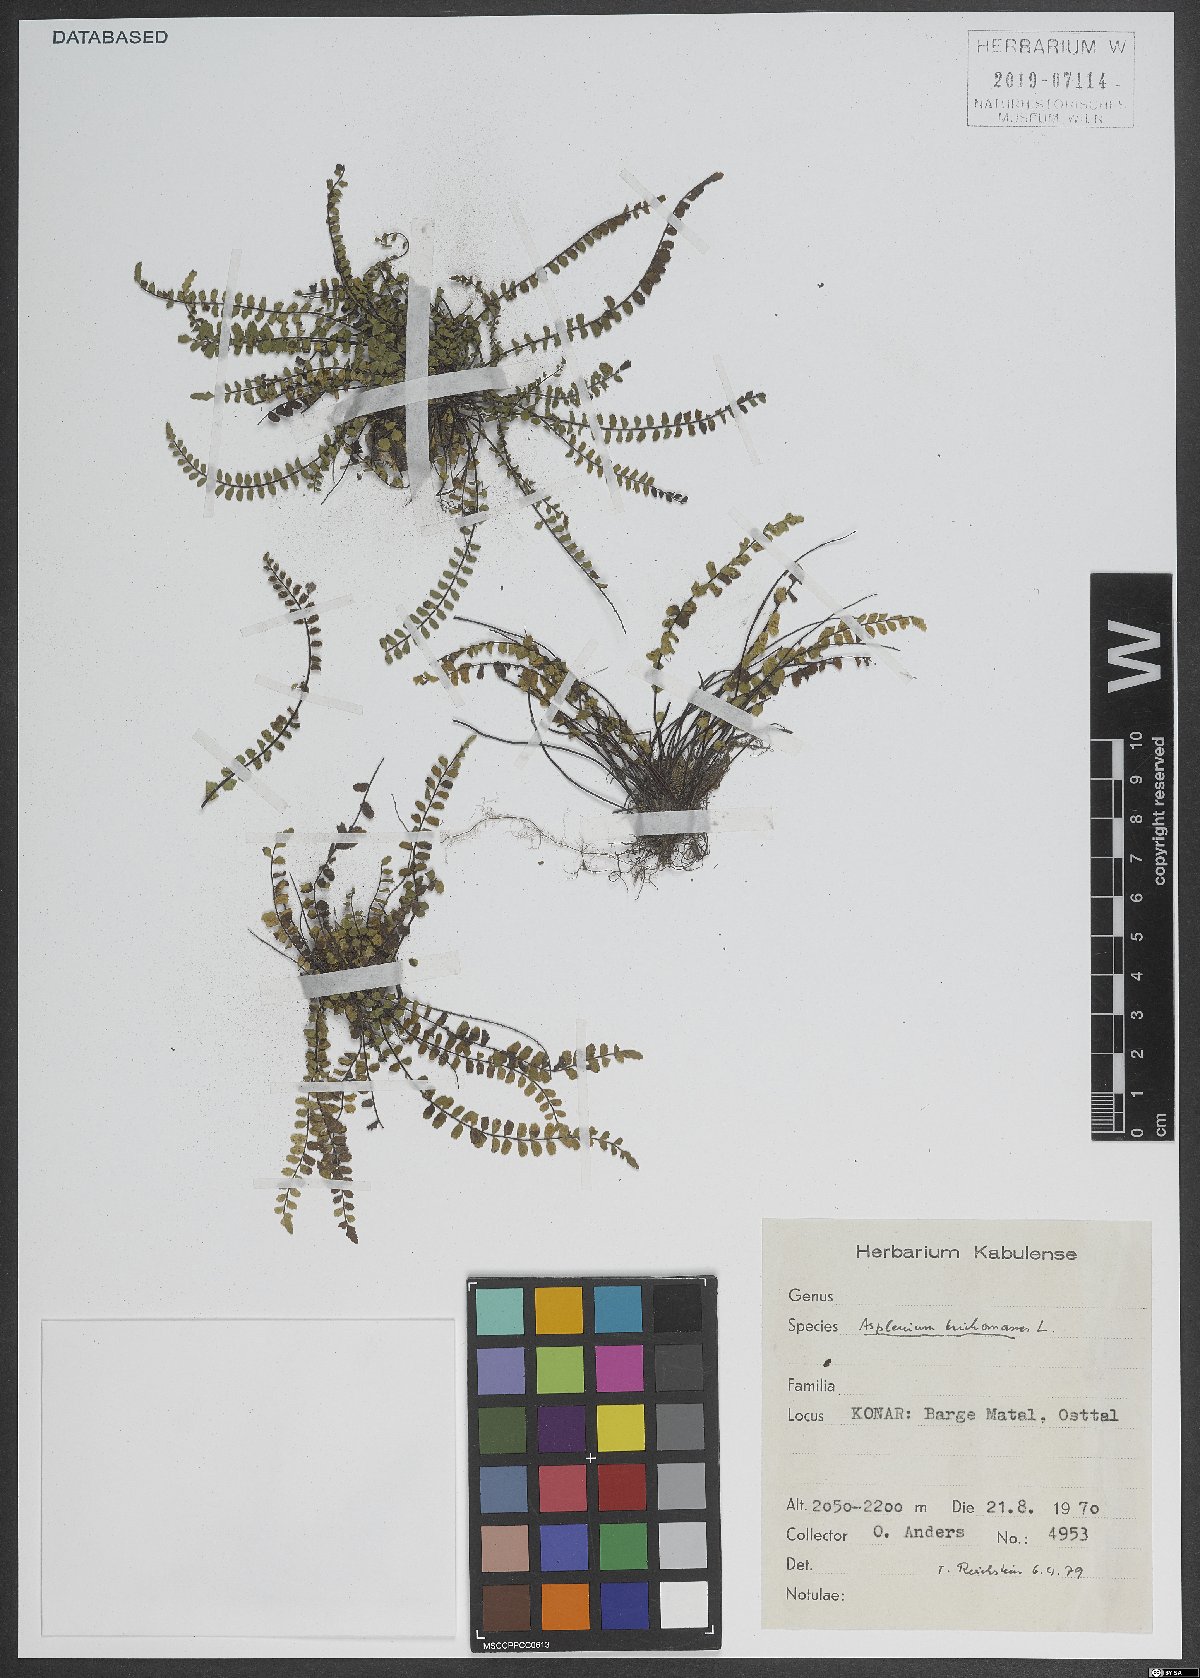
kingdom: Plantae
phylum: Tracheophyta
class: Polypodiopsida
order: Polypodiales
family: Aspleniaceae
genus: Asplenium
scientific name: Asplenium trichomanes
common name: Maidenhair spleenwort
